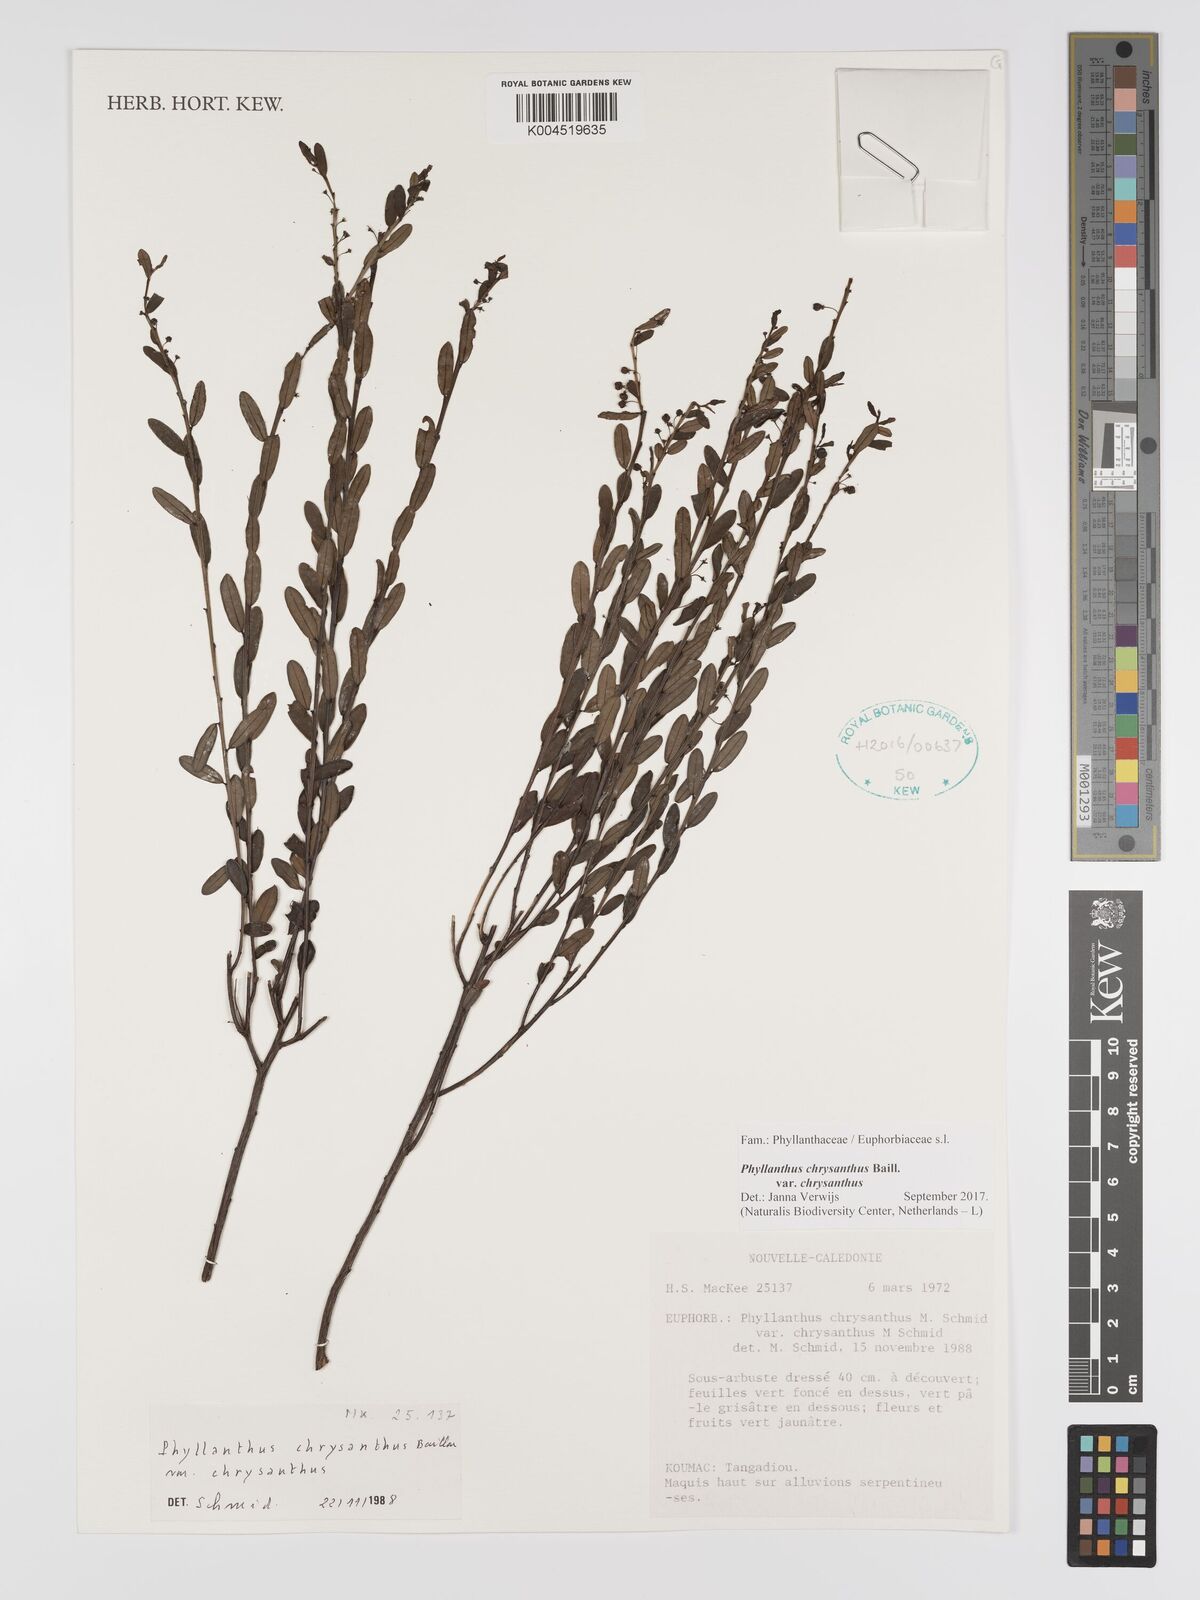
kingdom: Plantae
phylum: Tracheophyta
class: Magnoliopsida
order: Malpighiales
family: Phyllanthaceae
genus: Phyllanthus
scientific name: Phyllanthus chrysanthus
